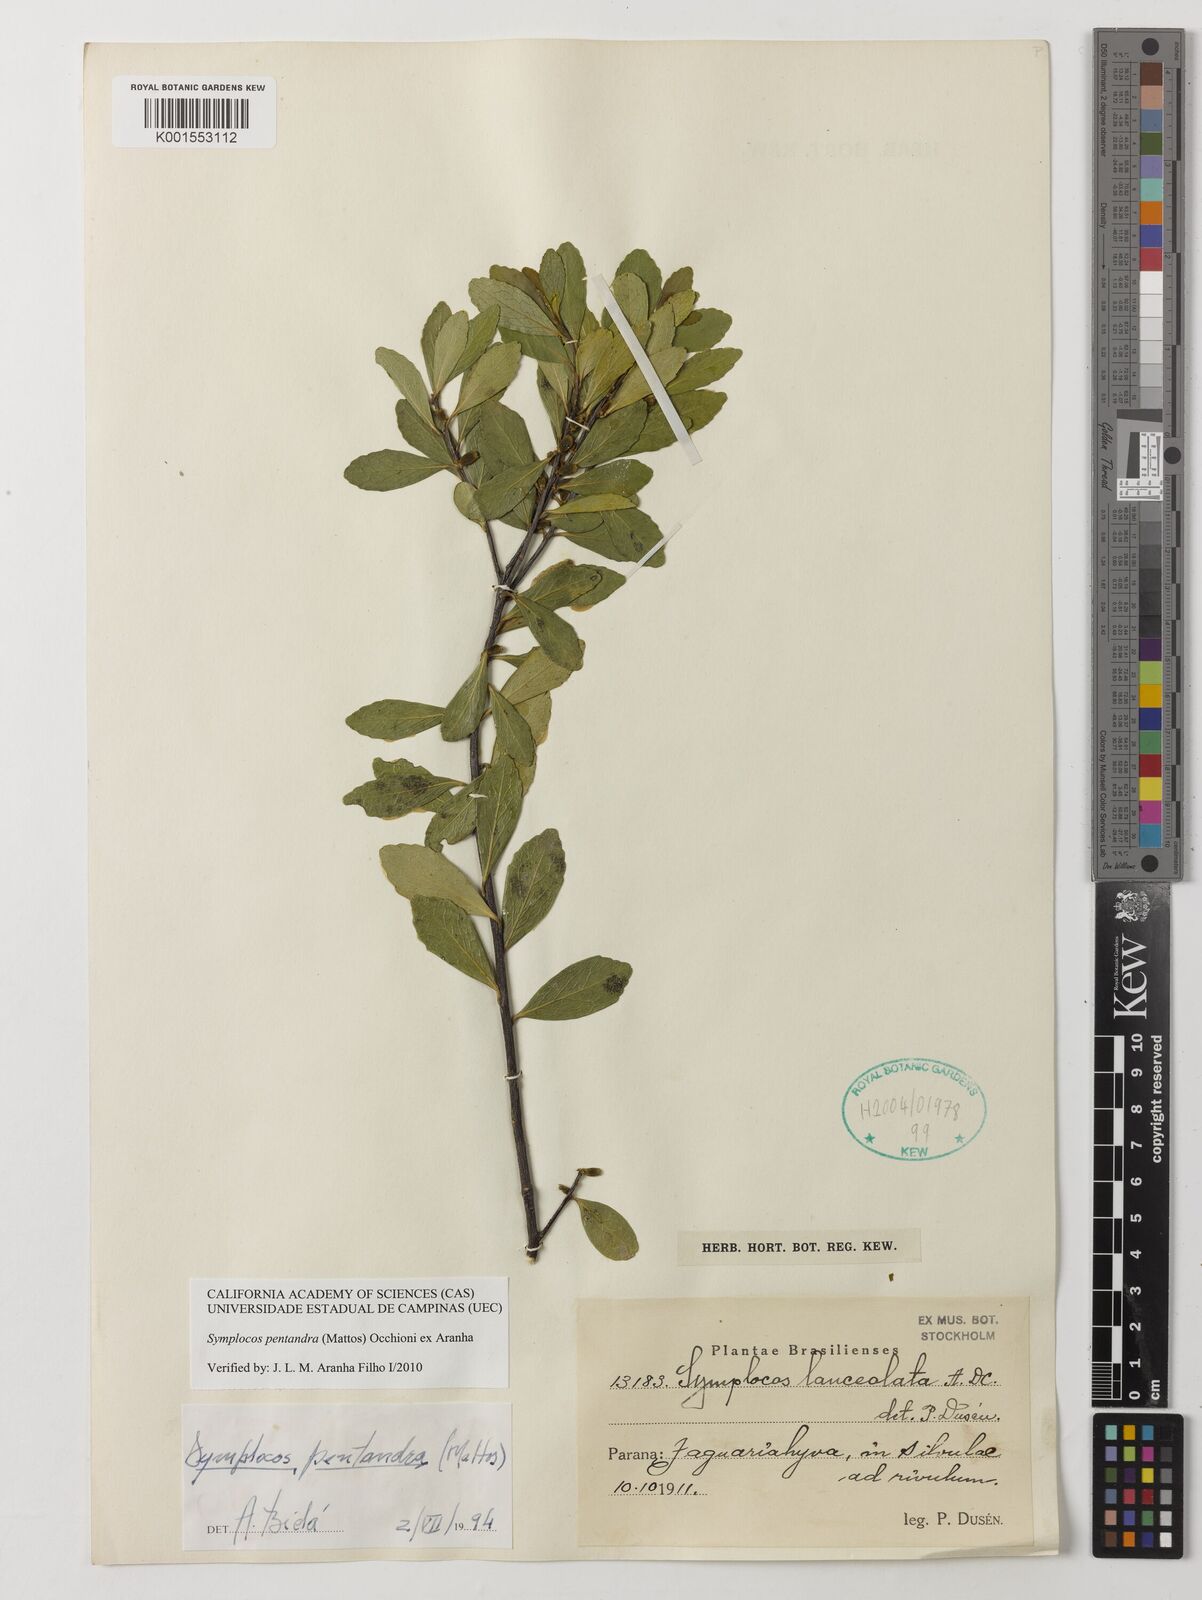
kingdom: Plantae
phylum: Tracheophyta
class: Magnoliopsida
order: Ericales
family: Symplocaceae
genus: Symplocos
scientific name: Symplocos pentandra
